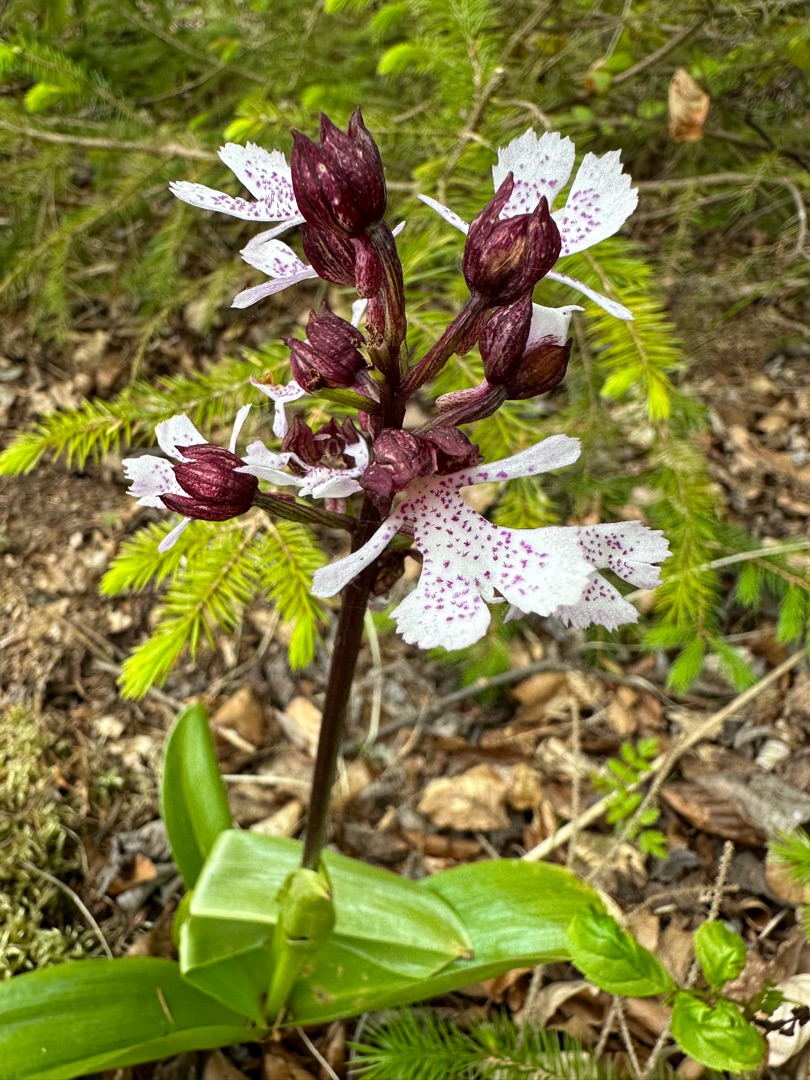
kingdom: Plantae
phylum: Tracheophyta
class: Liliopsida
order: Asparagales
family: Orchidaceae
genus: Orchis
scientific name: Orchis purpurea
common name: Stor gøgeurt
